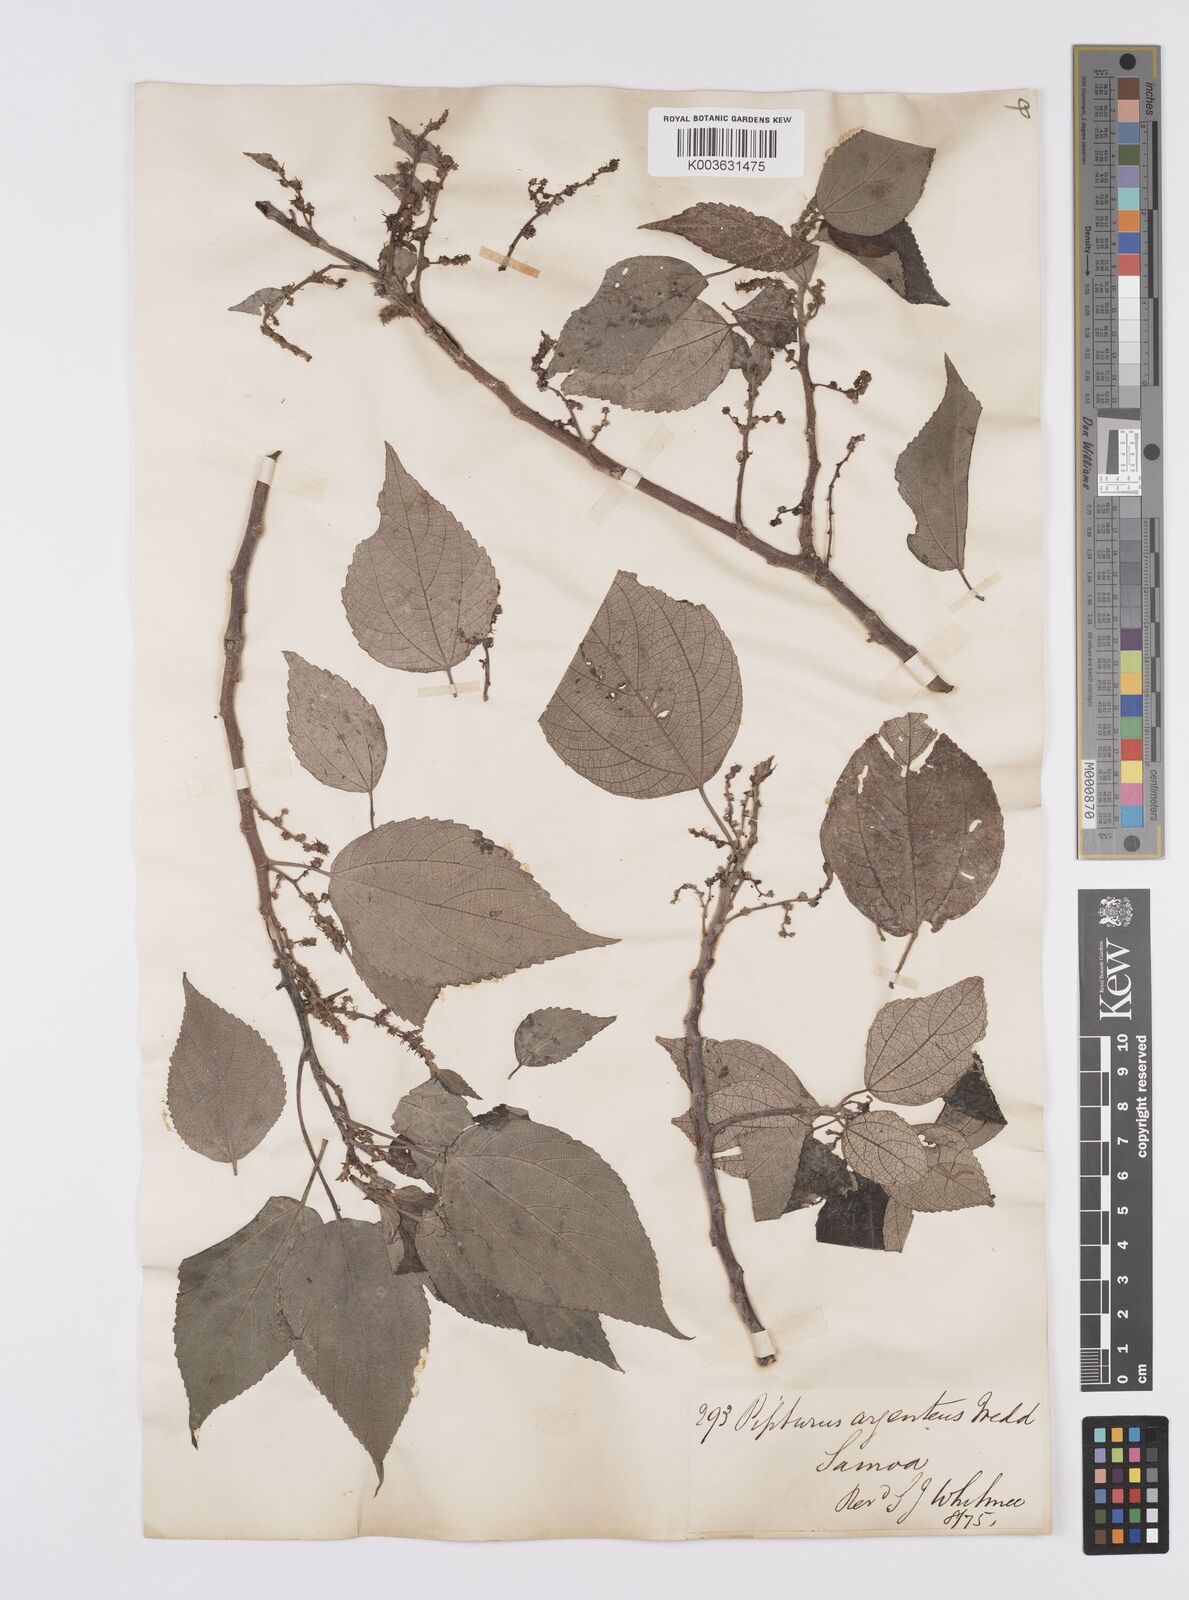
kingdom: Plantae
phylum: Tracheophyta
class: Magnoliopsida
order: Rosales
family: Urticaceae
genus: Pipturus
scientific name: Pipturus argenteus
